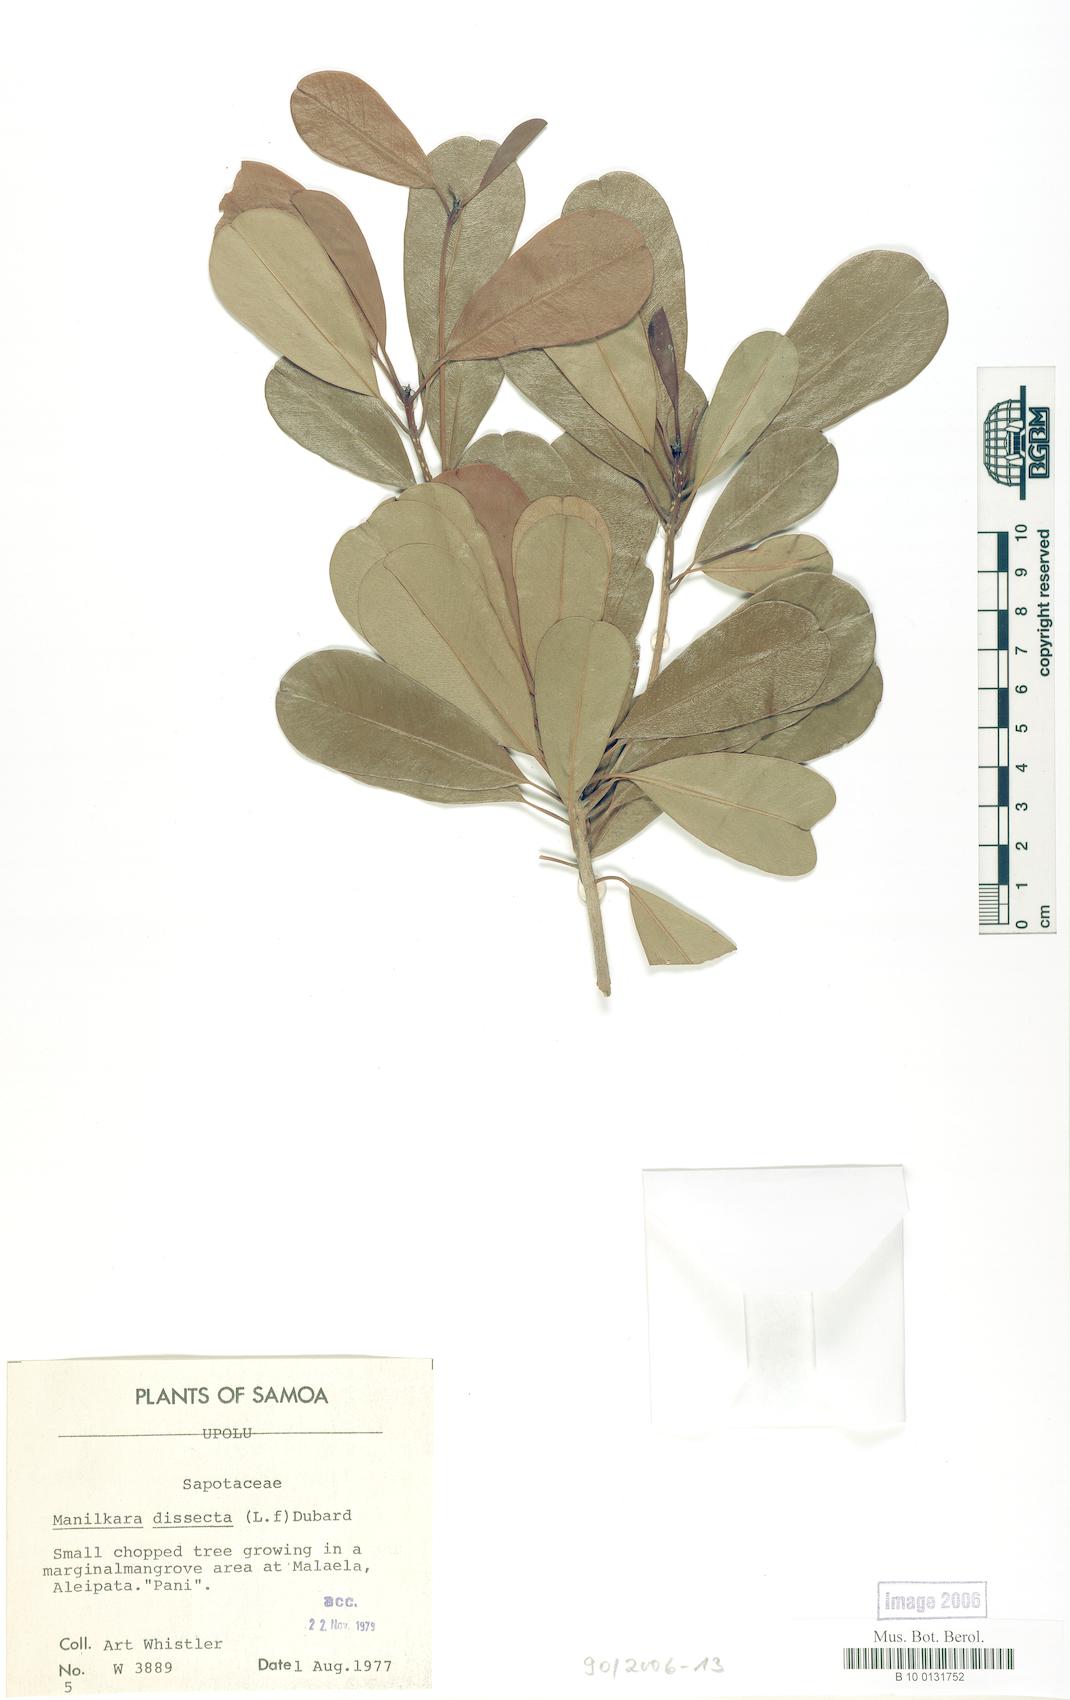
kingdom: Plantae
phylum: Tracheophyta
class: Magnoliopsida
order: Ericales
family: Sapotaceae
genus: Manilkara
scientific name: Manilkara dissecta
